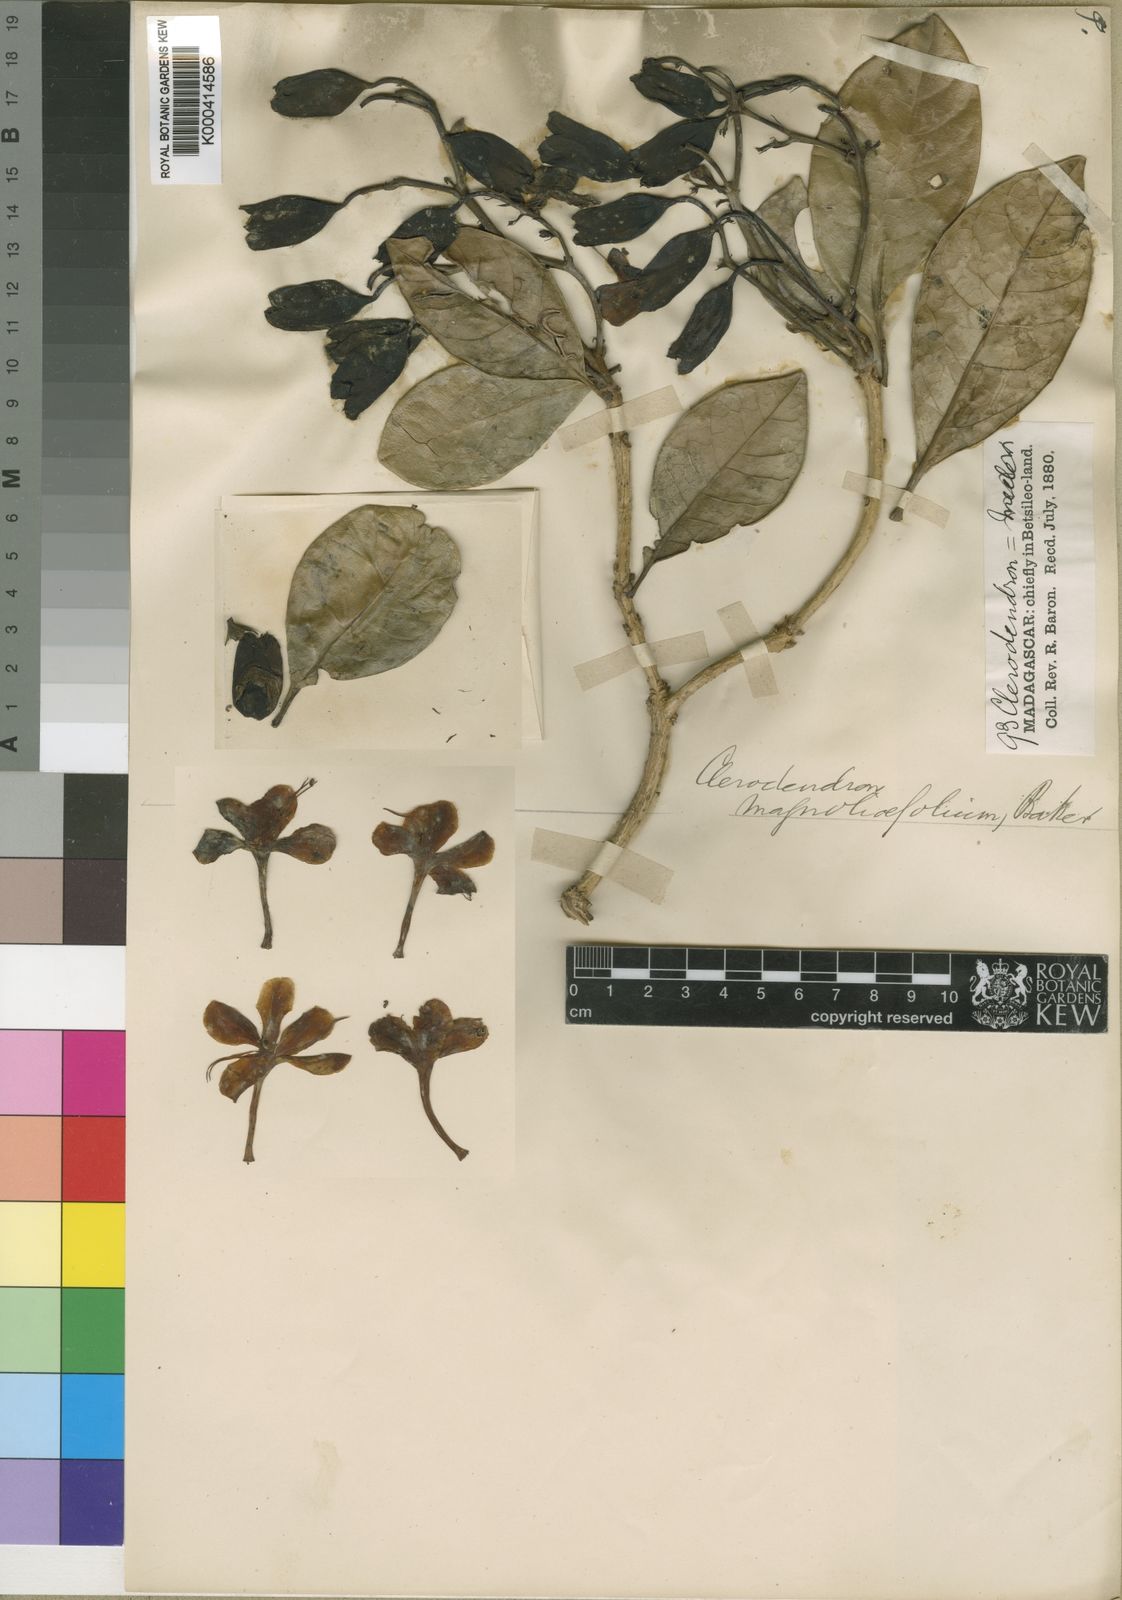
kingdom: Plantae
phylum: Tracheophyta
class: Magnoliopsida
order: Lamiales
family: Lamiaceae
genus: Clerodendrum
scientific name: Clerodendrum magnoliifolium
